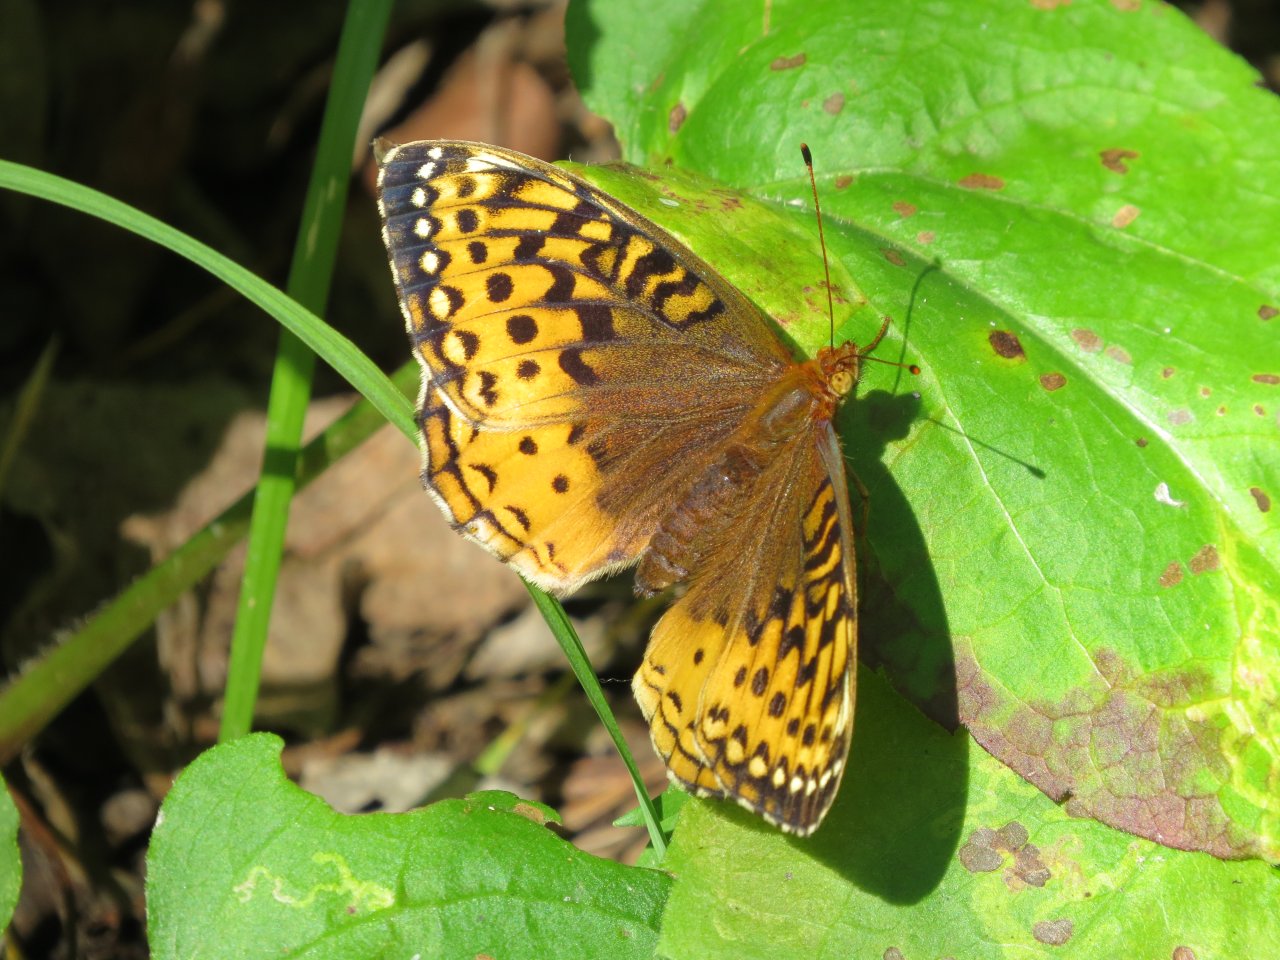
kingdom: Animalia
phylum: Arthropoda
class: Insecta
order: Lepidoptera
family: Nymphalidae
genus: Speyeria
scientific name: Speyeria cybele
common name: Great Spangled Fritillary
